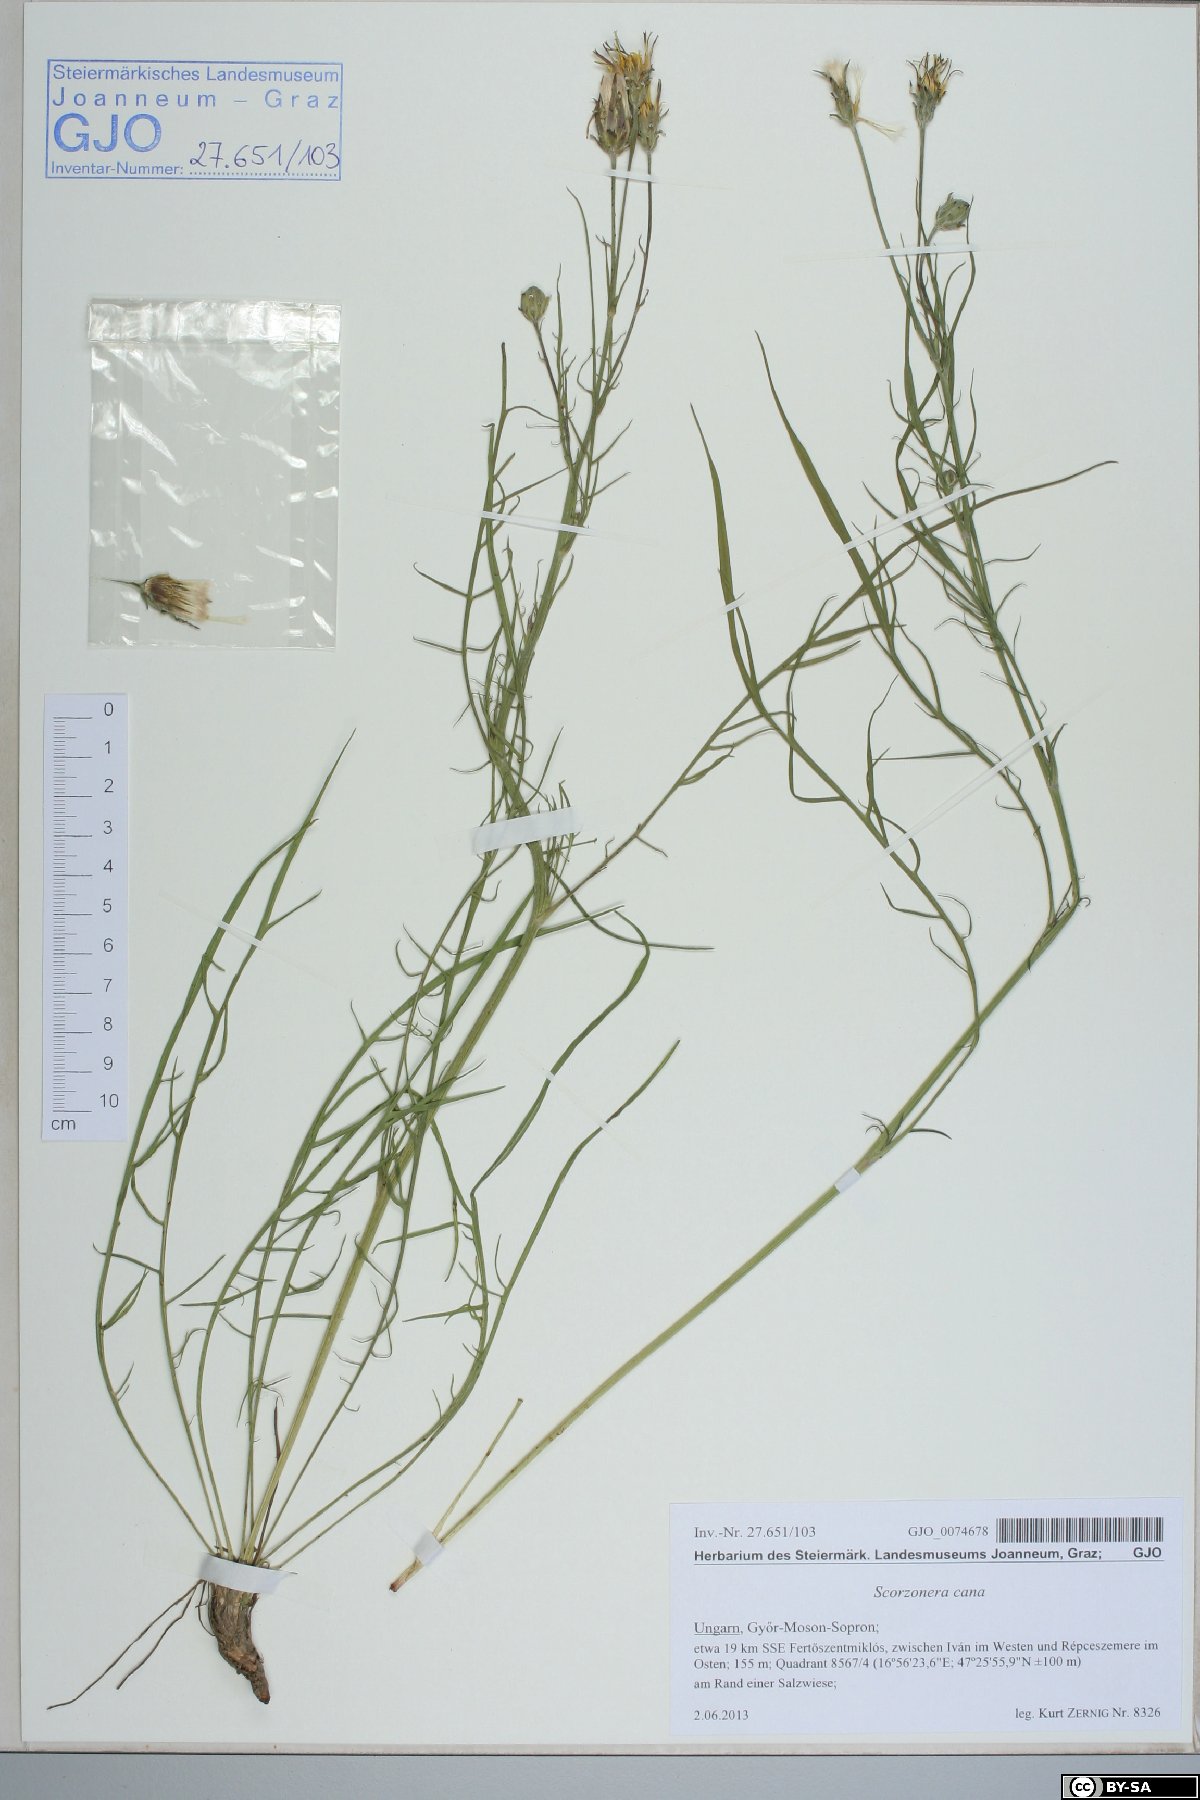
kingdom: Plantae
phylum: Tracheophyta
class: Magnoliopsida
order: Asterales
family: Asteraceae
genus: Scorzonera
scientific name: Scorzonera cana
